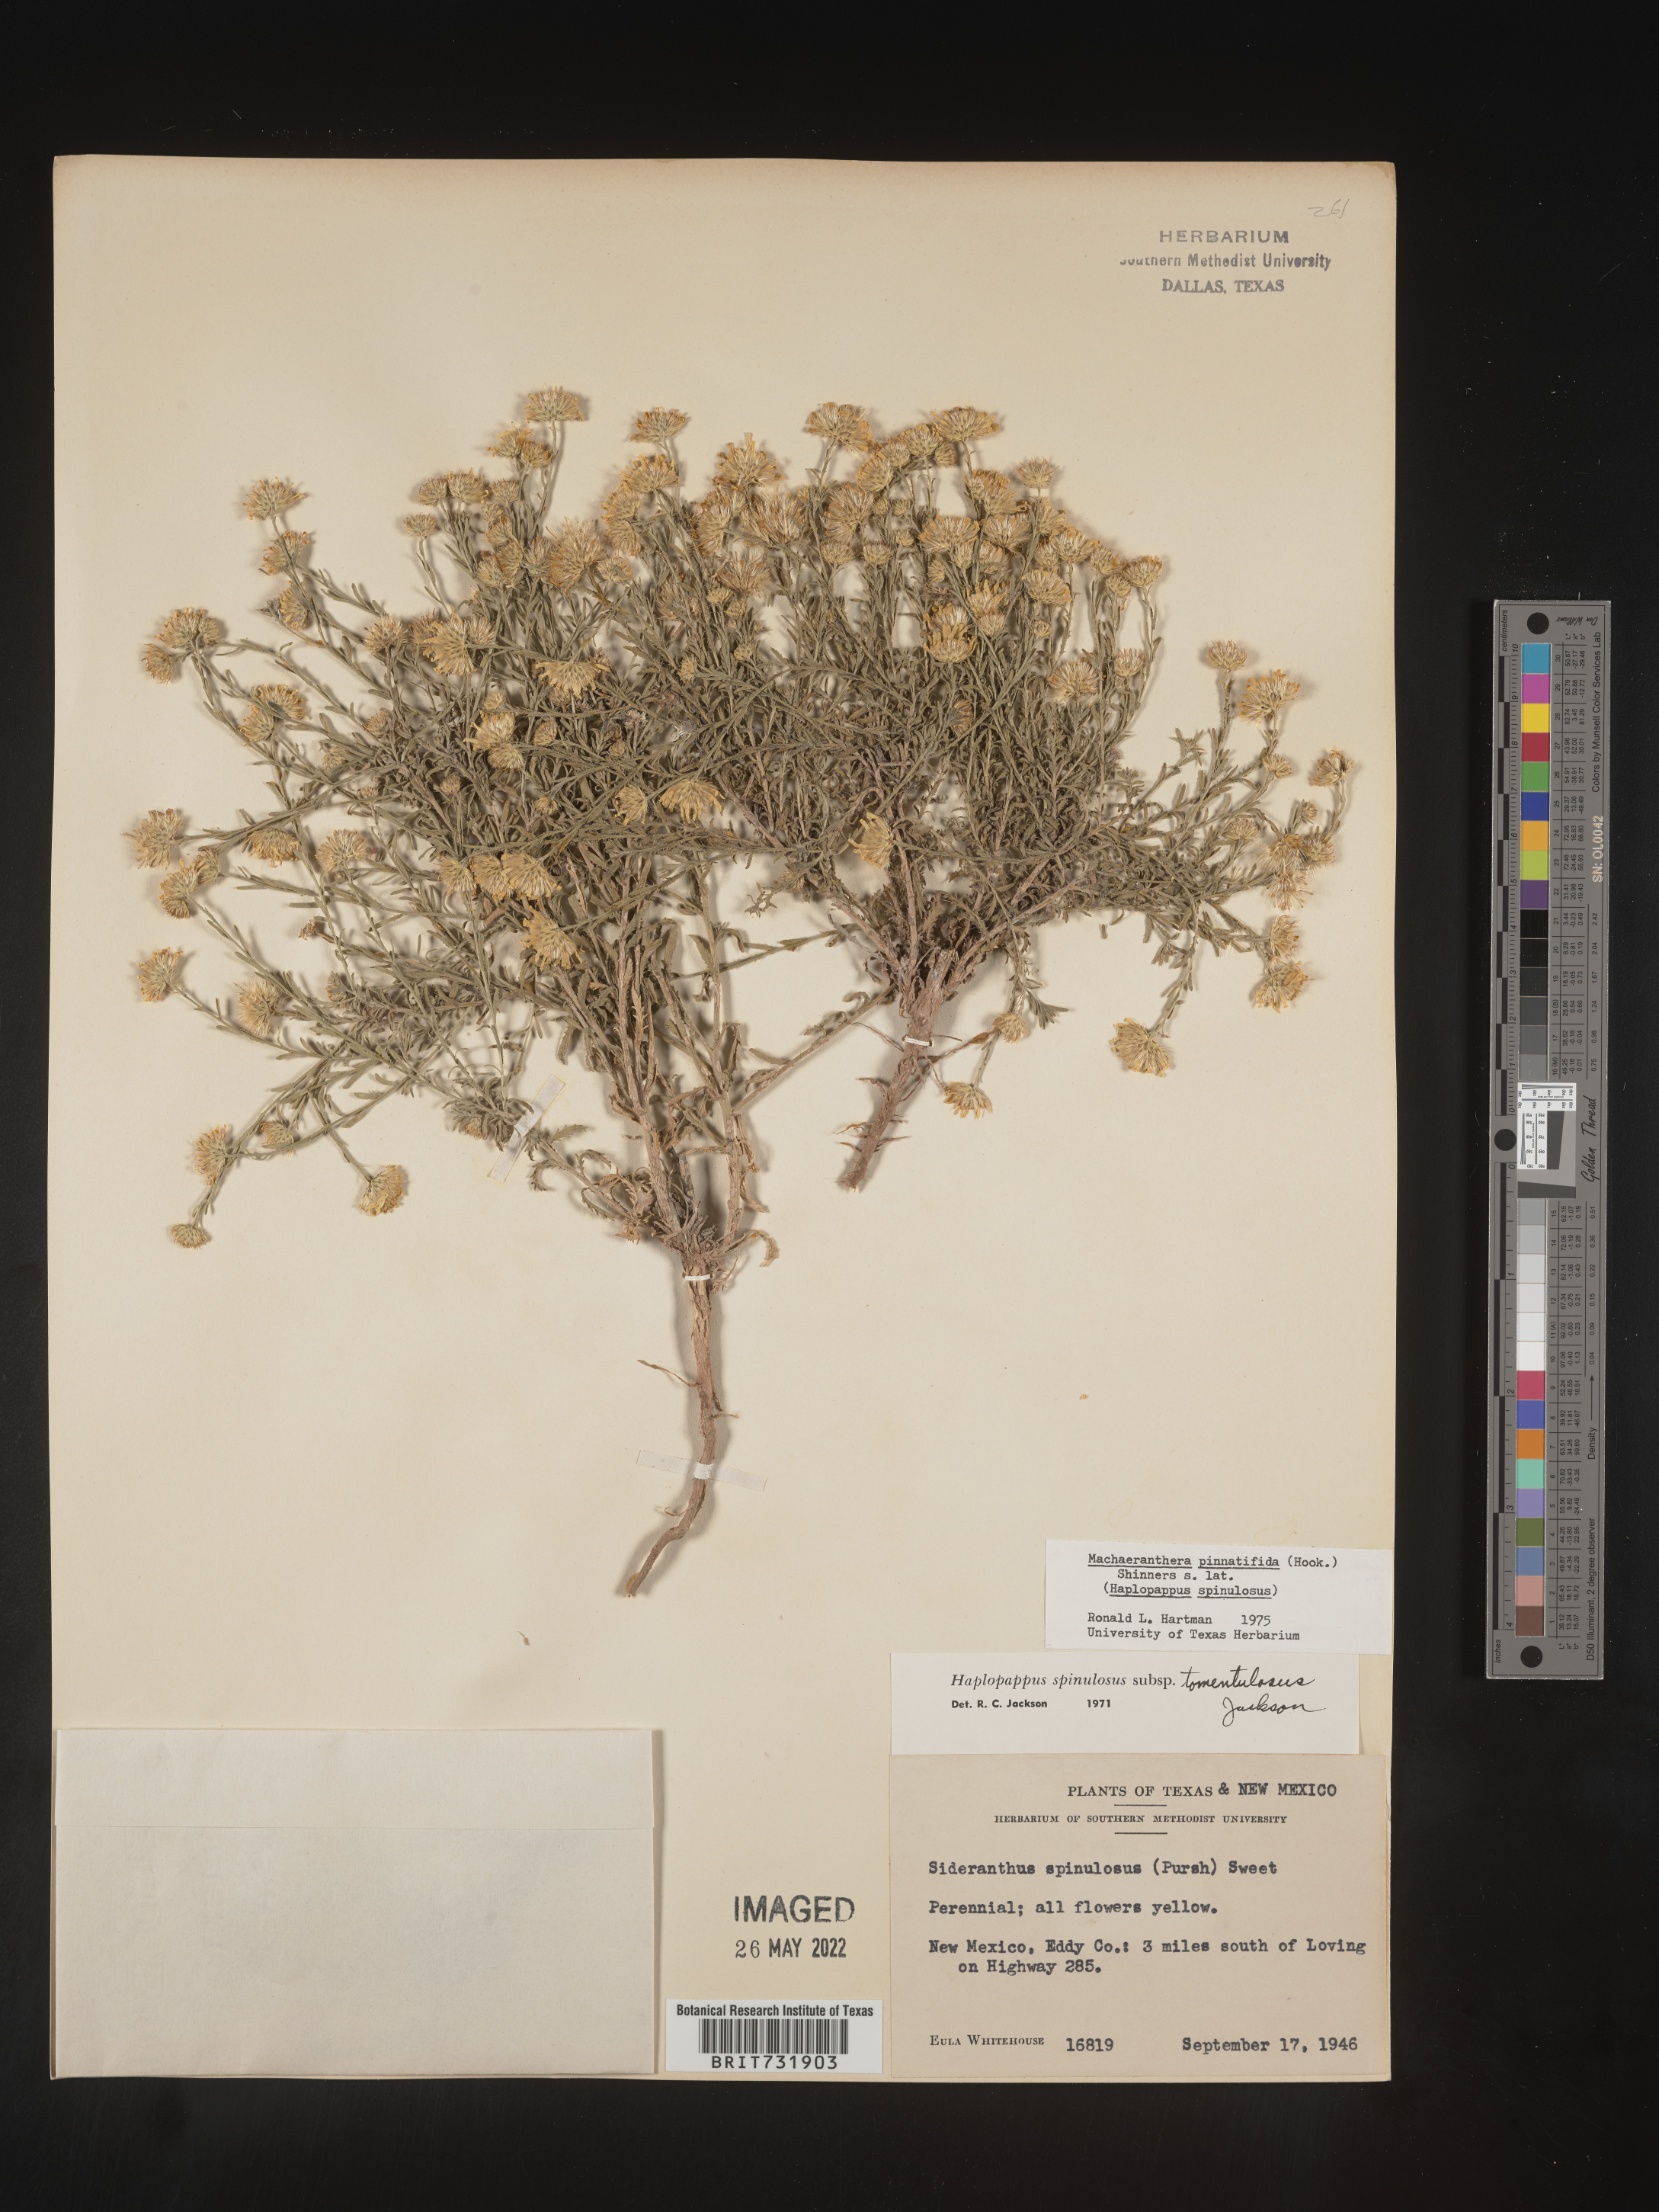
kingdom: Plantae
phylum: Tracheophyta
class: Magnoliopsida
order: Asterales
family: Asteraceae
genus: Xanthisma
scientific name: Xanthisma spinulosum
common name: Spiny goldenweed
